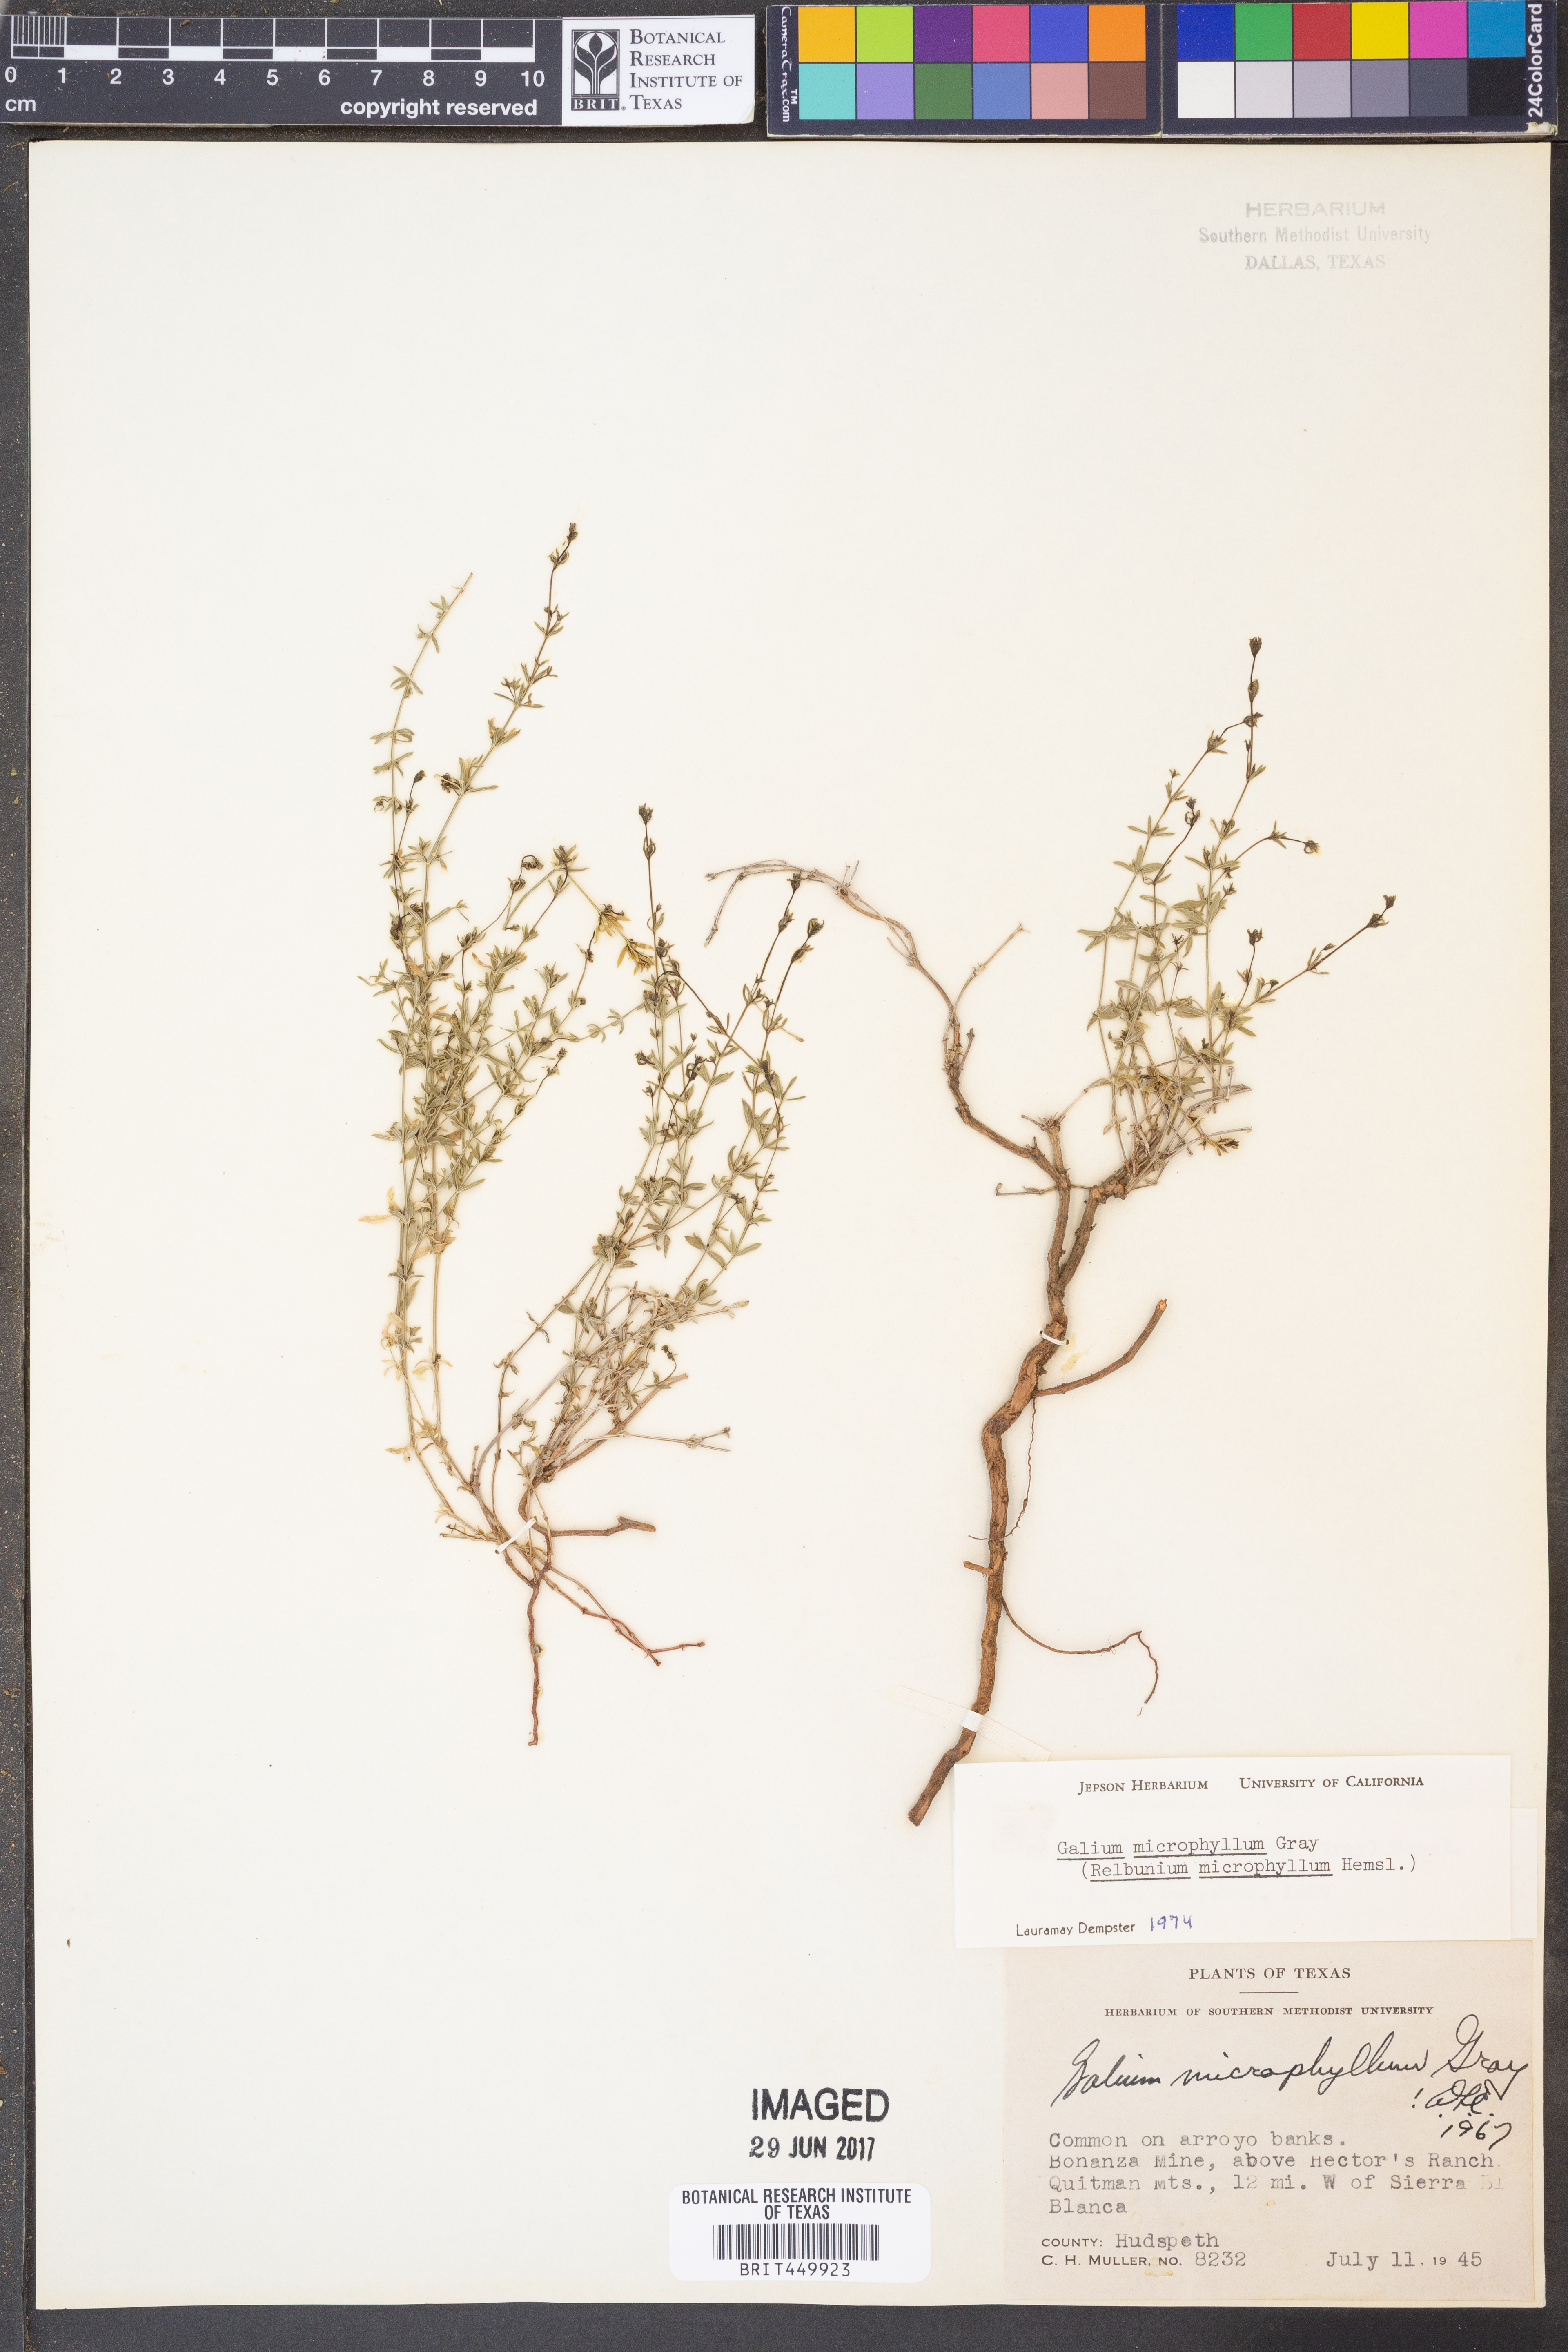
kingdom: Plantae
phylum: Tracheophyta
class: Magnoliopsida
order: Gentianales
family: Rubiaceae
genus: Galium
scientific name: Galium microphyllum
